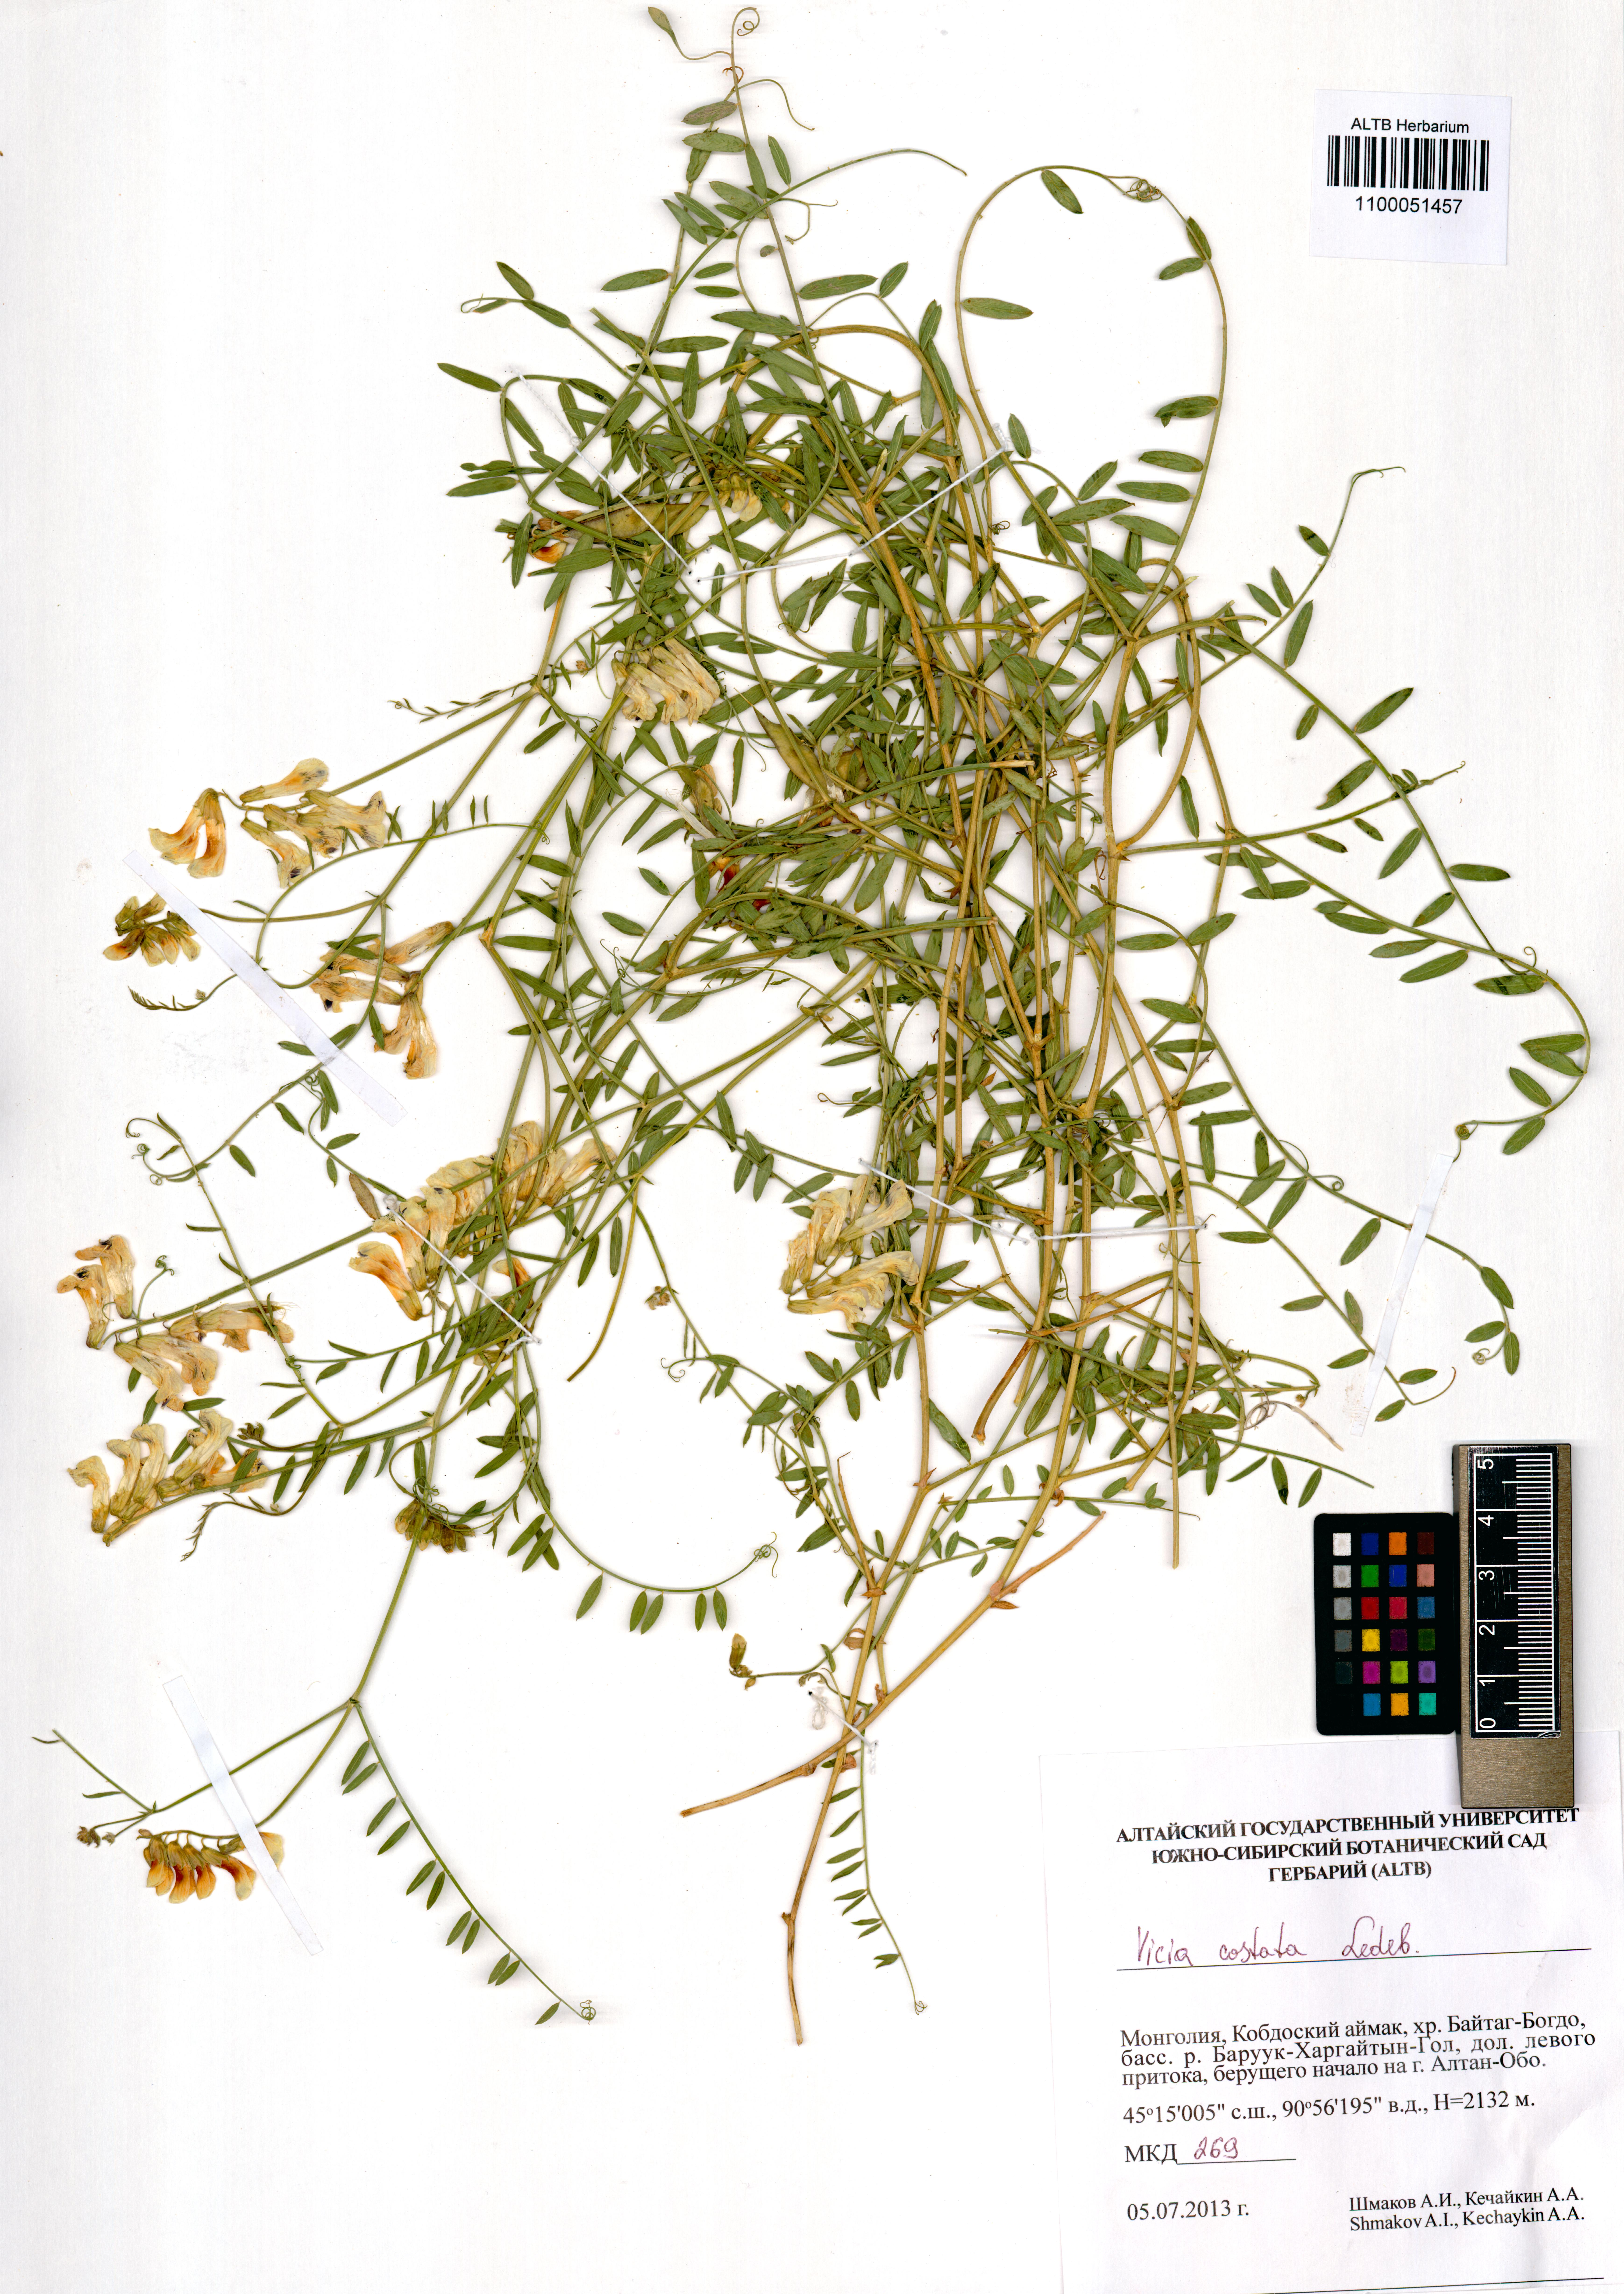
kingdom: Plantae
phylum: Tracheophyta
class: Magnoliopsida
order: Fabales
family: Fabaceae
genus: Vicia
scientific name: Vicia costata
